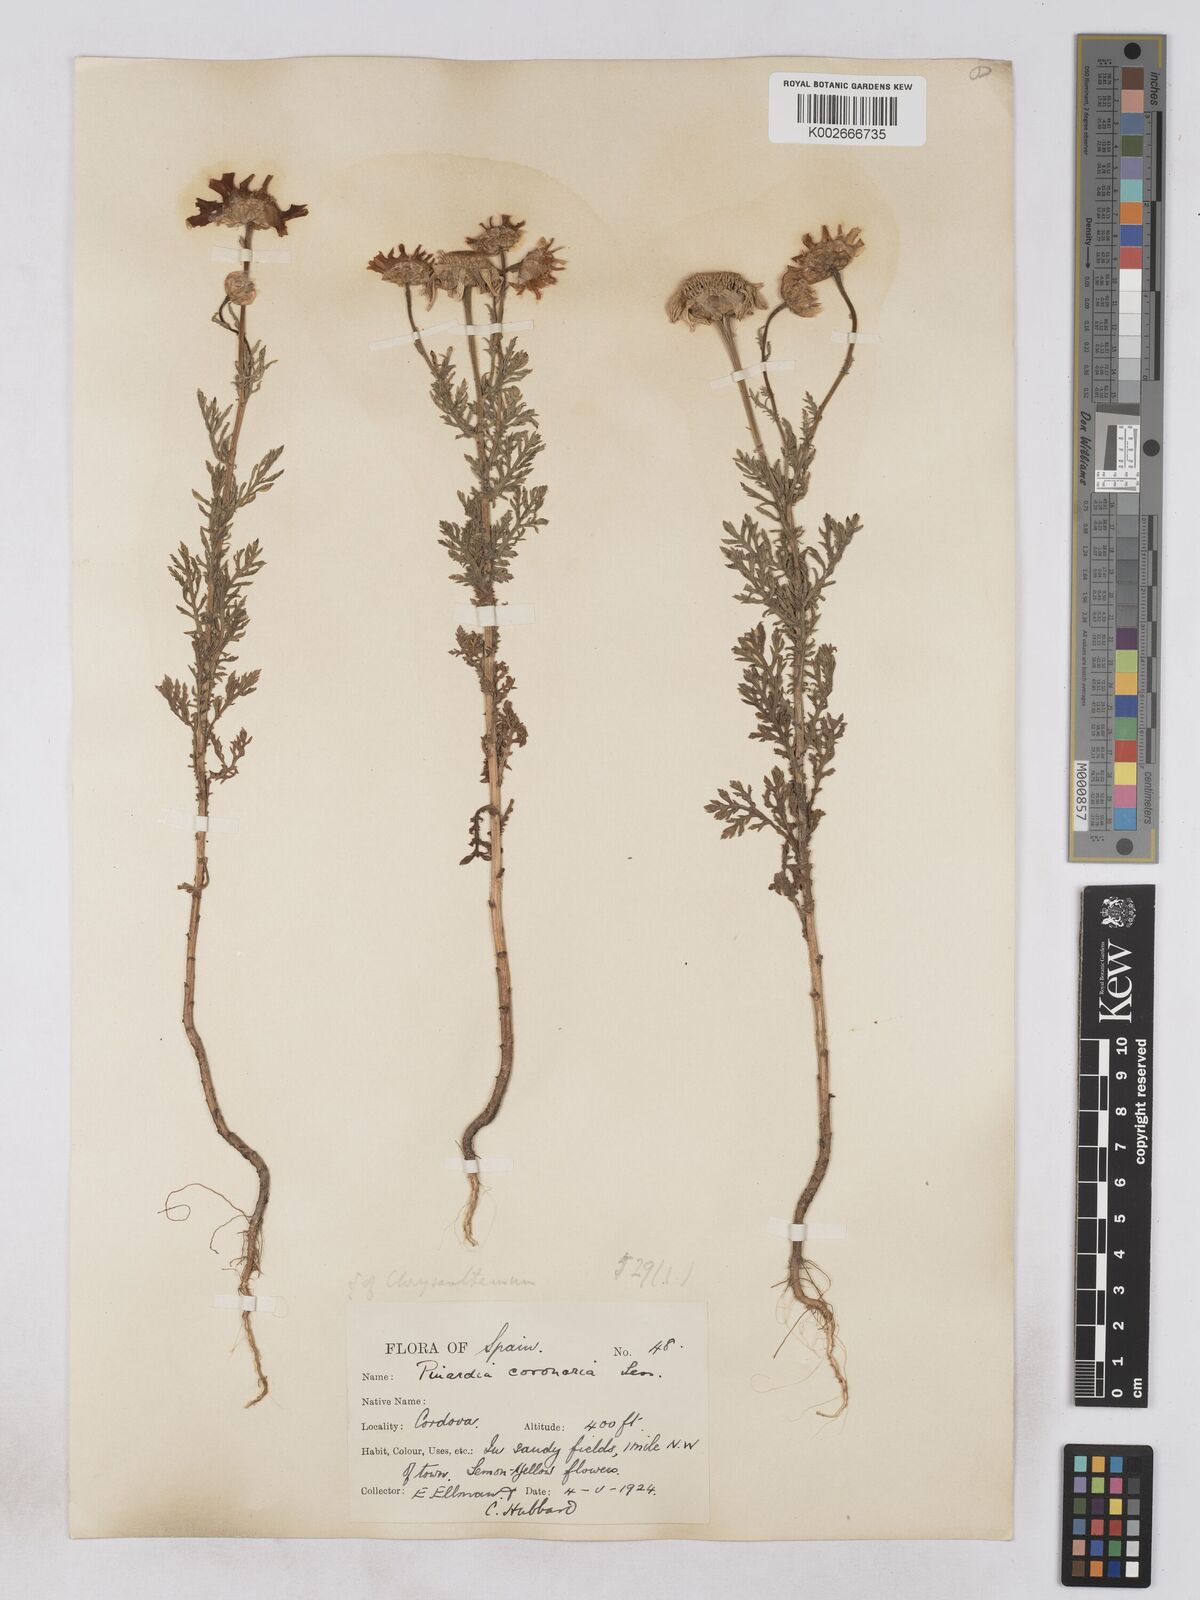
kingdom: Plantae
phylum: Tracheophyta
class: Magnoliopsida
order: Asterales
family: Asteraceae
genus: Glebionis
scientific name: Glebionis
